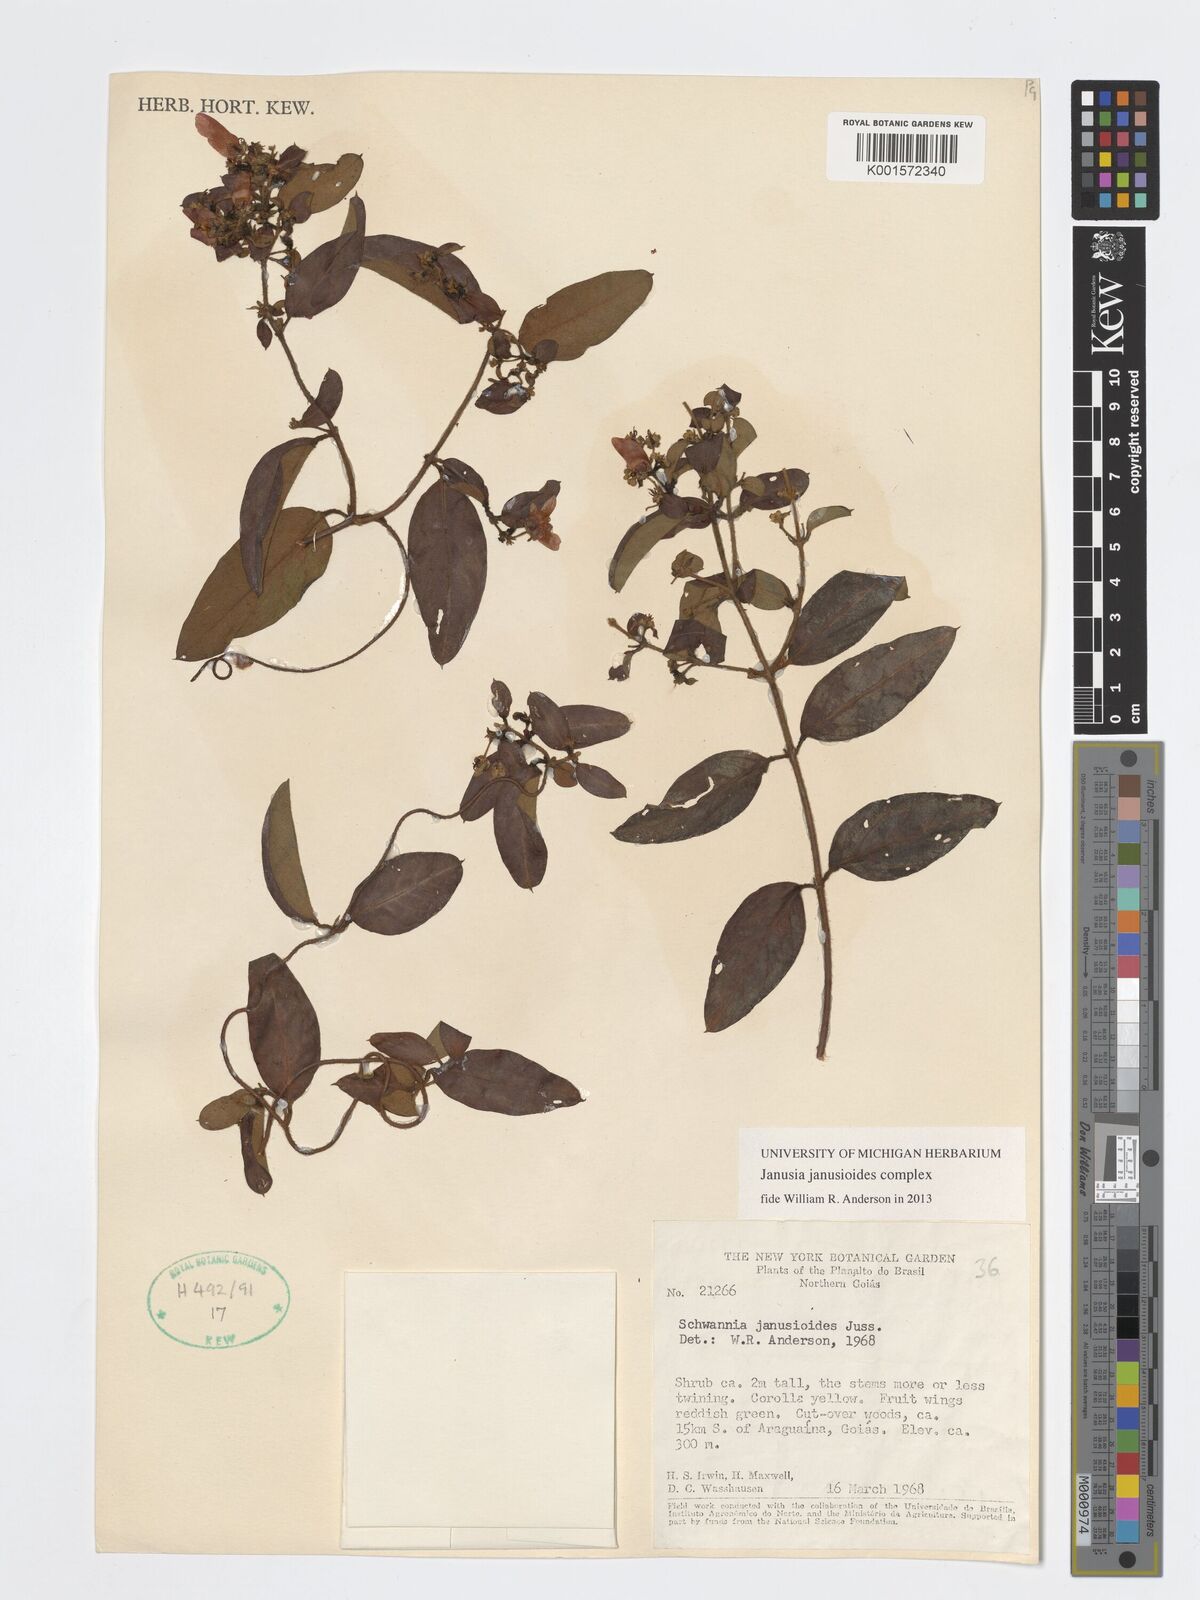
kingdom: Plantae
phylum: Tracheophyta
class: Magnoliopsida
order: Malpighiales
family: Malpighiaceae
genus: Janusia
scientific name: Janusia janusioides
